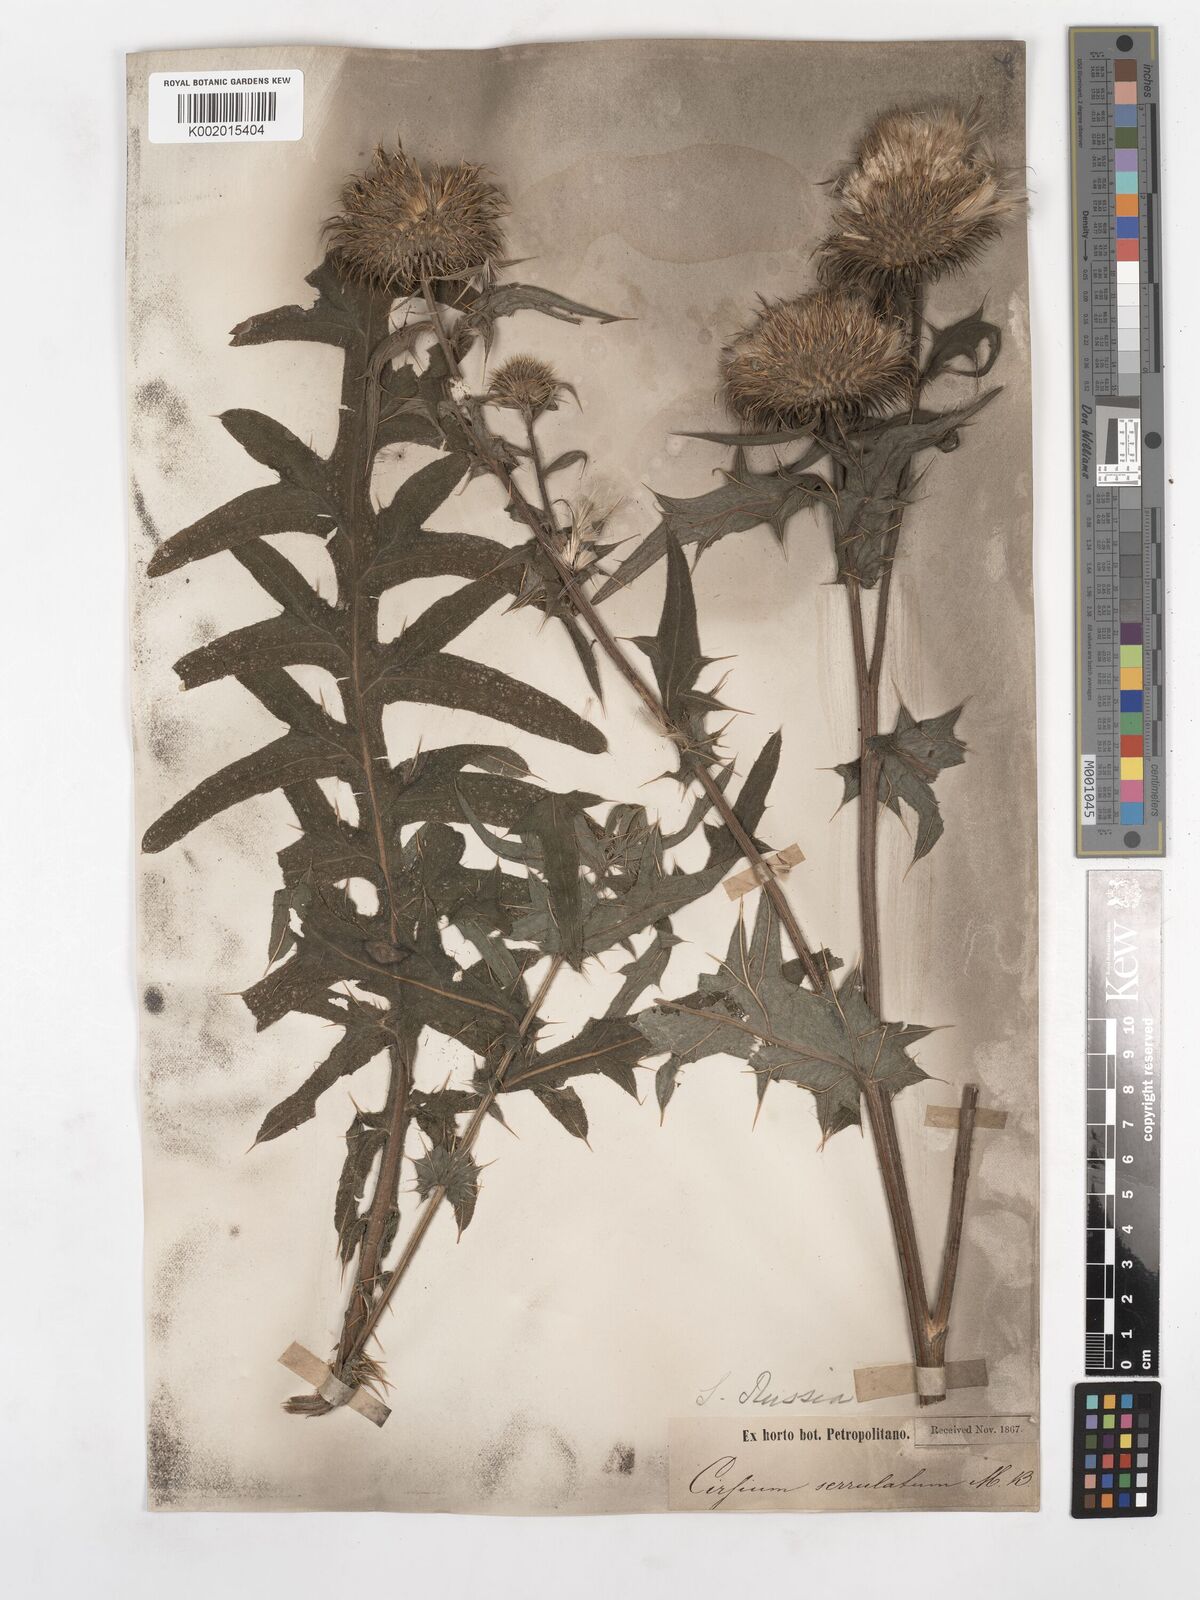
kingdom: Plantae
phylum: Tracheophyta
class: Magnoliopsida
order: Asterales
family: Asteraceae
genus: Lophiolepis
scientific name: Lophiolepis serrulata
